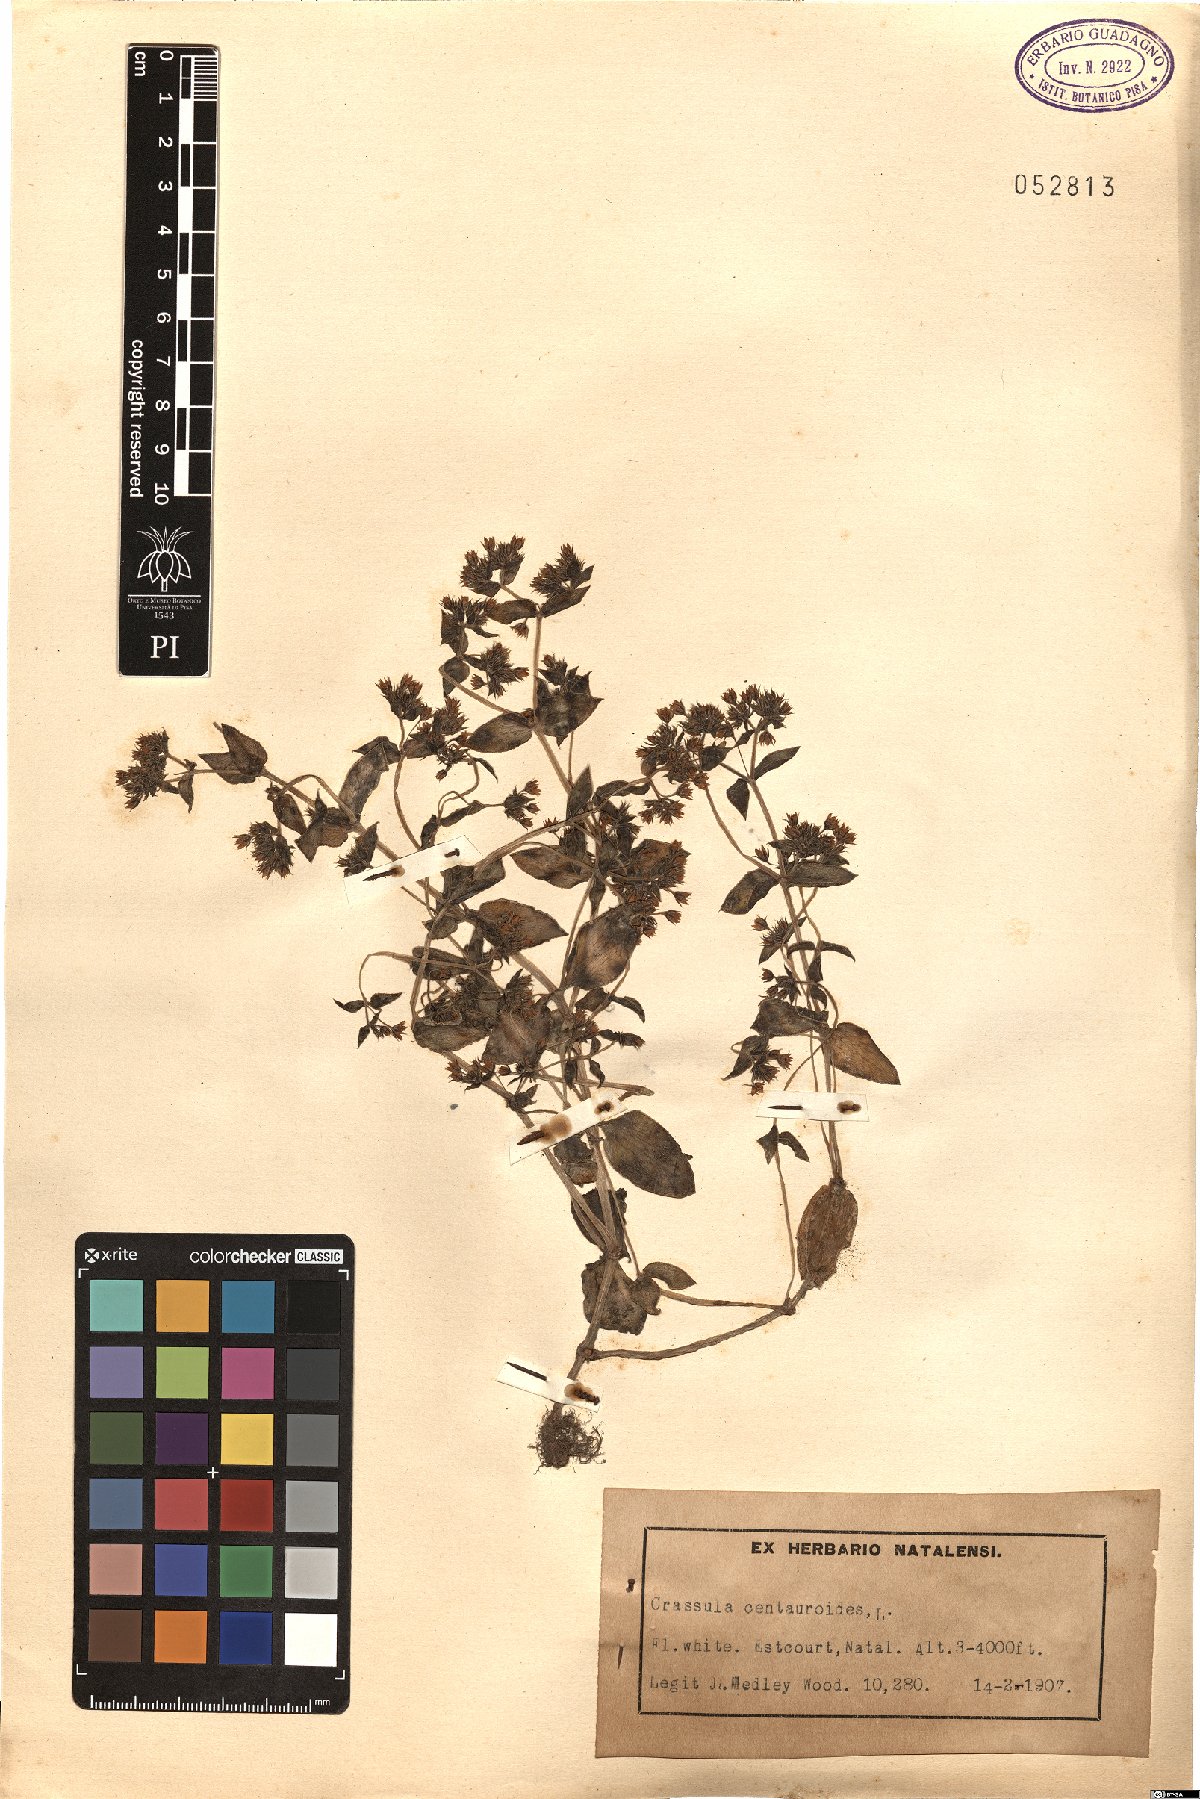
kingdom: Plantae
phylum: Tracheophyta
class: Magnoliopsida
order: Saxifragales
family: Crassulaceae
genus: Crassula
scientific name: Crassula strigosa
